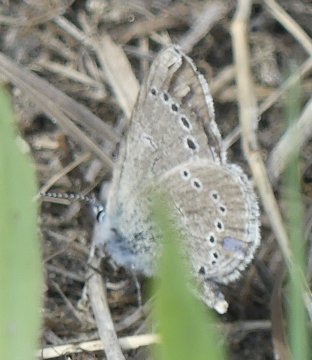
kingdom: Animalia
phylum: Arthropoda
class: Insecta
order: Lepidoptera
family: Lycaenidae
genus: Glaucopsyche
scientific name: Glaucopsyche lygdamus
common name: Silvery Blue
